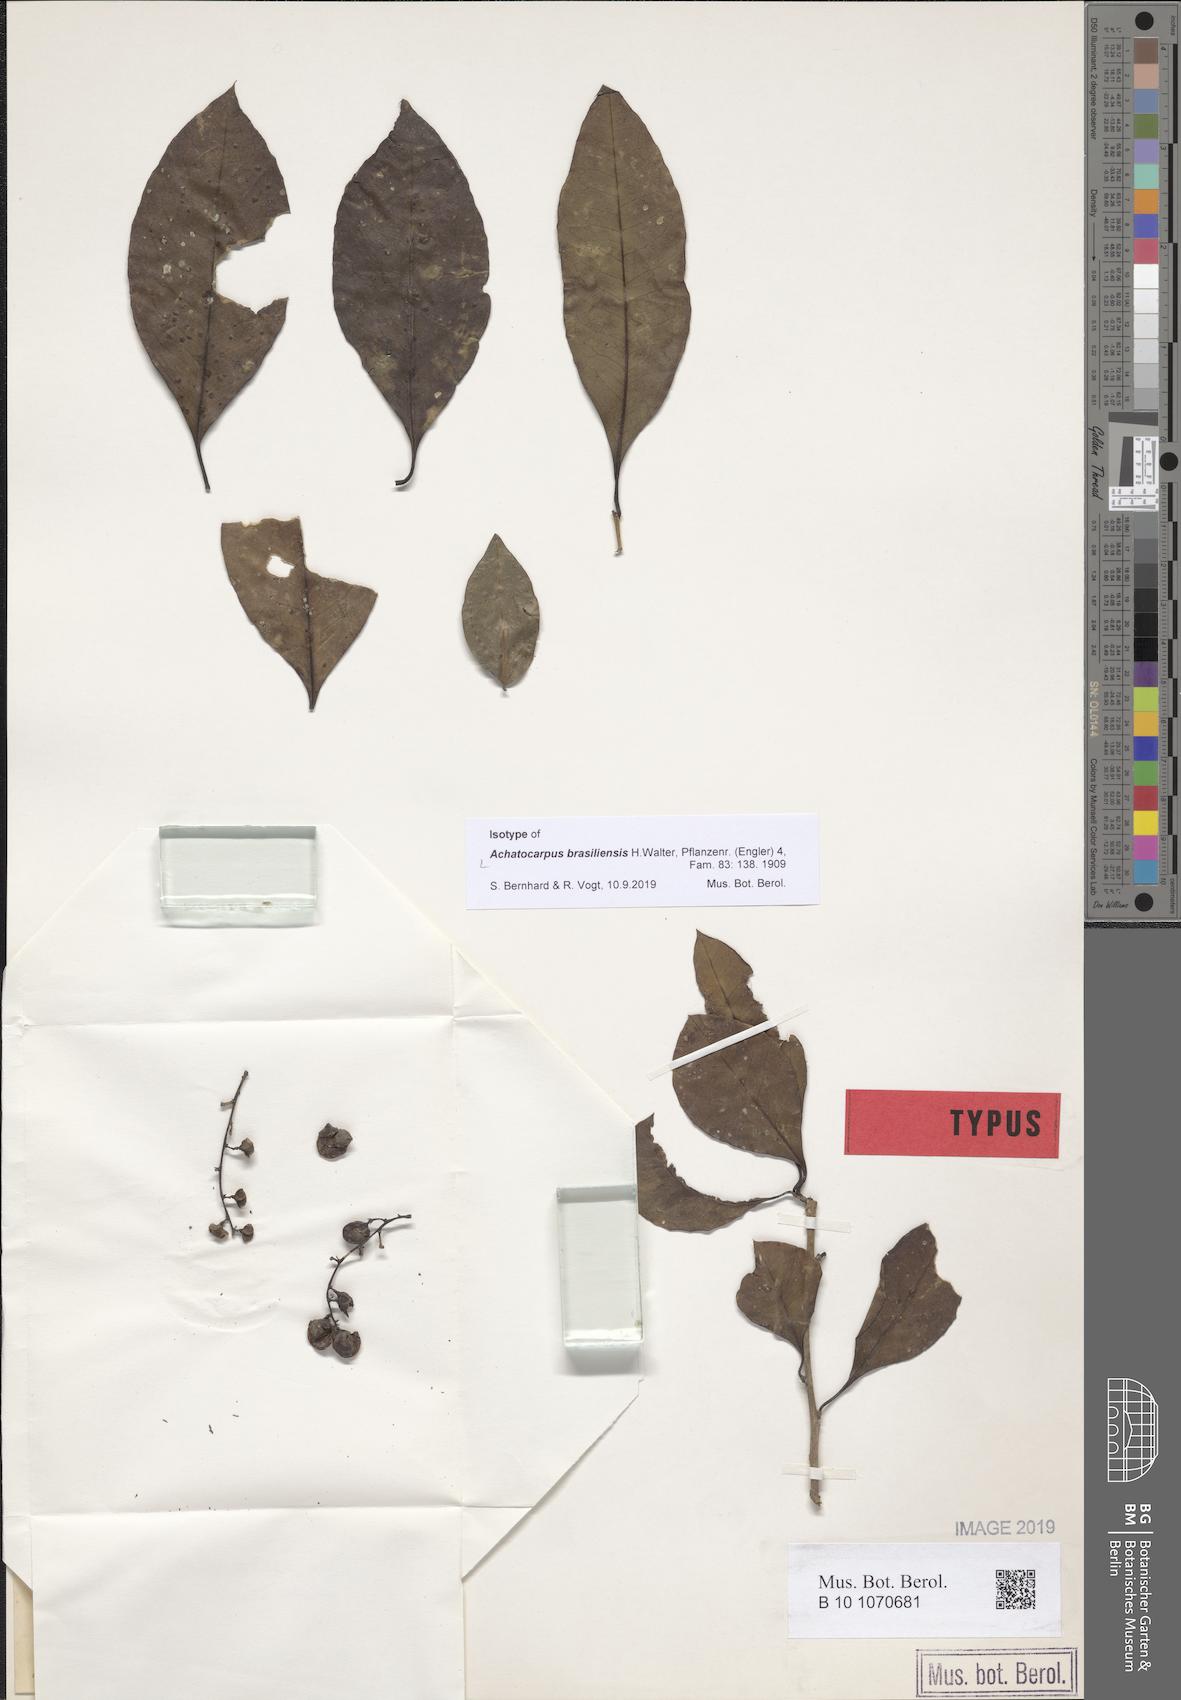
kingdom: Plantae
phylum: Tracheophyta
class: Magnoliopsida
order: Caryophyllales
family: Achatocarpaceae
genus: Achatocarpus
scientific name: Achatocarpus praecox
